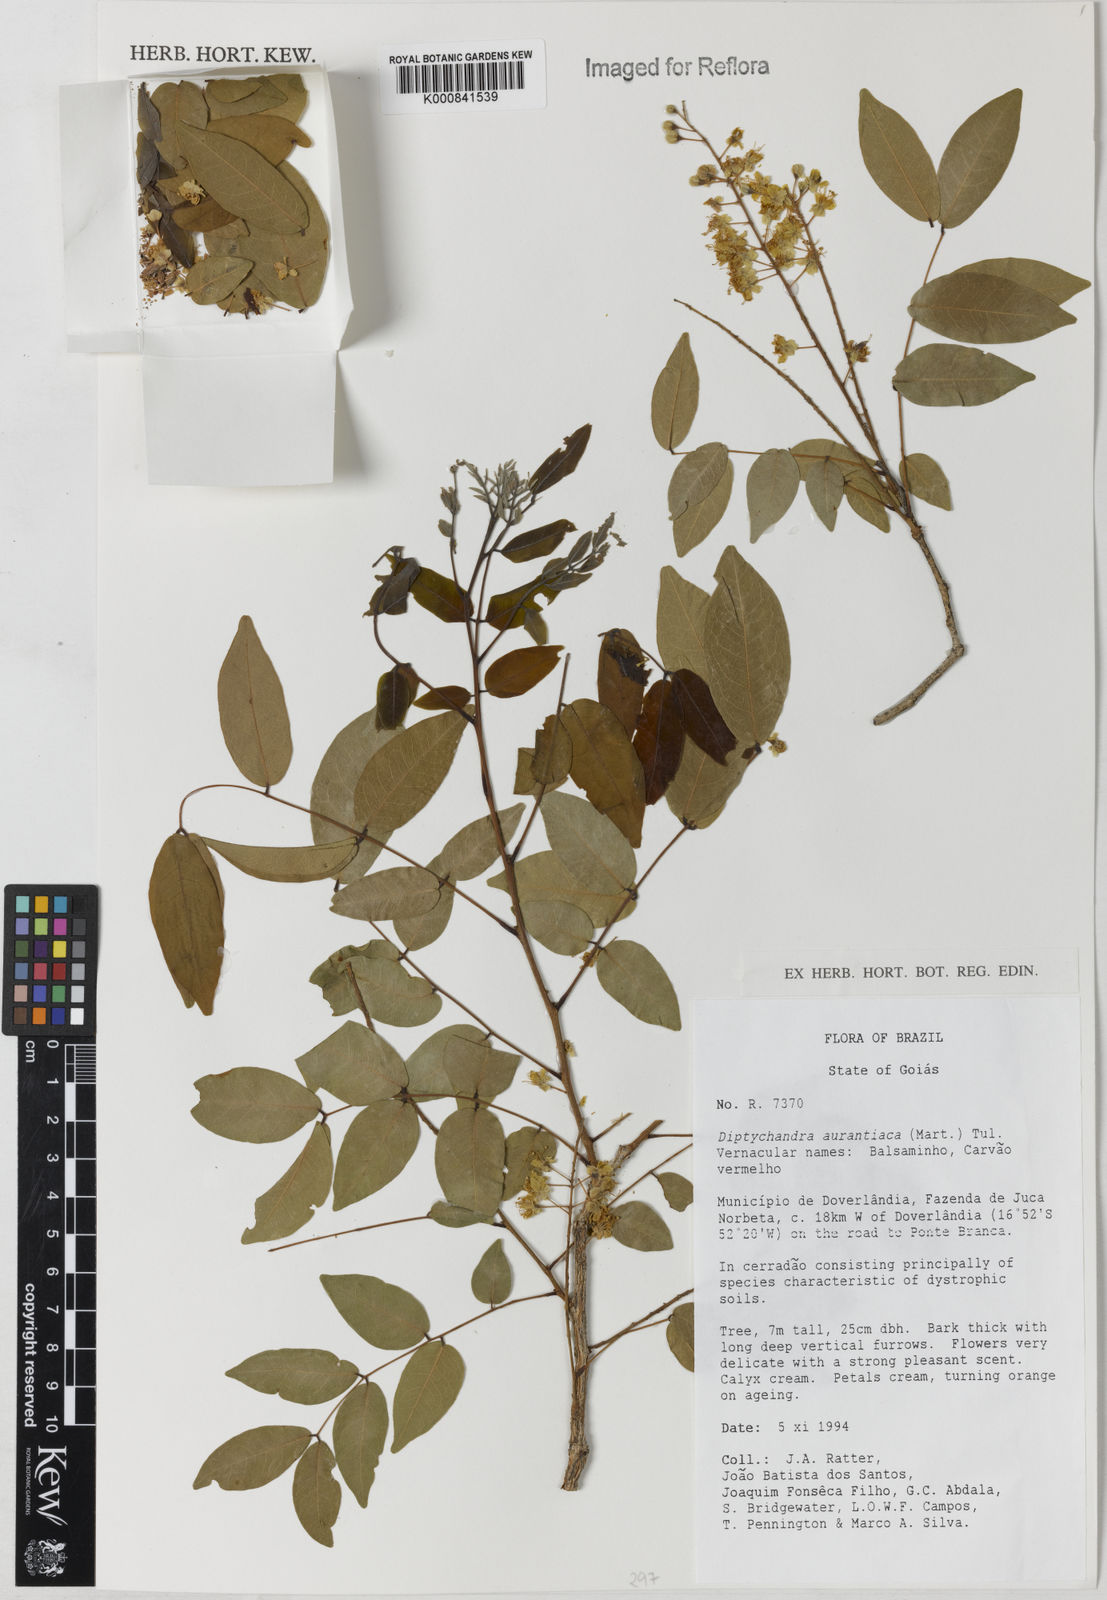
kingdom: Plantae
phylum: Tracheophyta
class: Magnoliopsida
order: Fabales
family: Fabaceae
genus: Diptychandra
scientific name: Diptychandra
